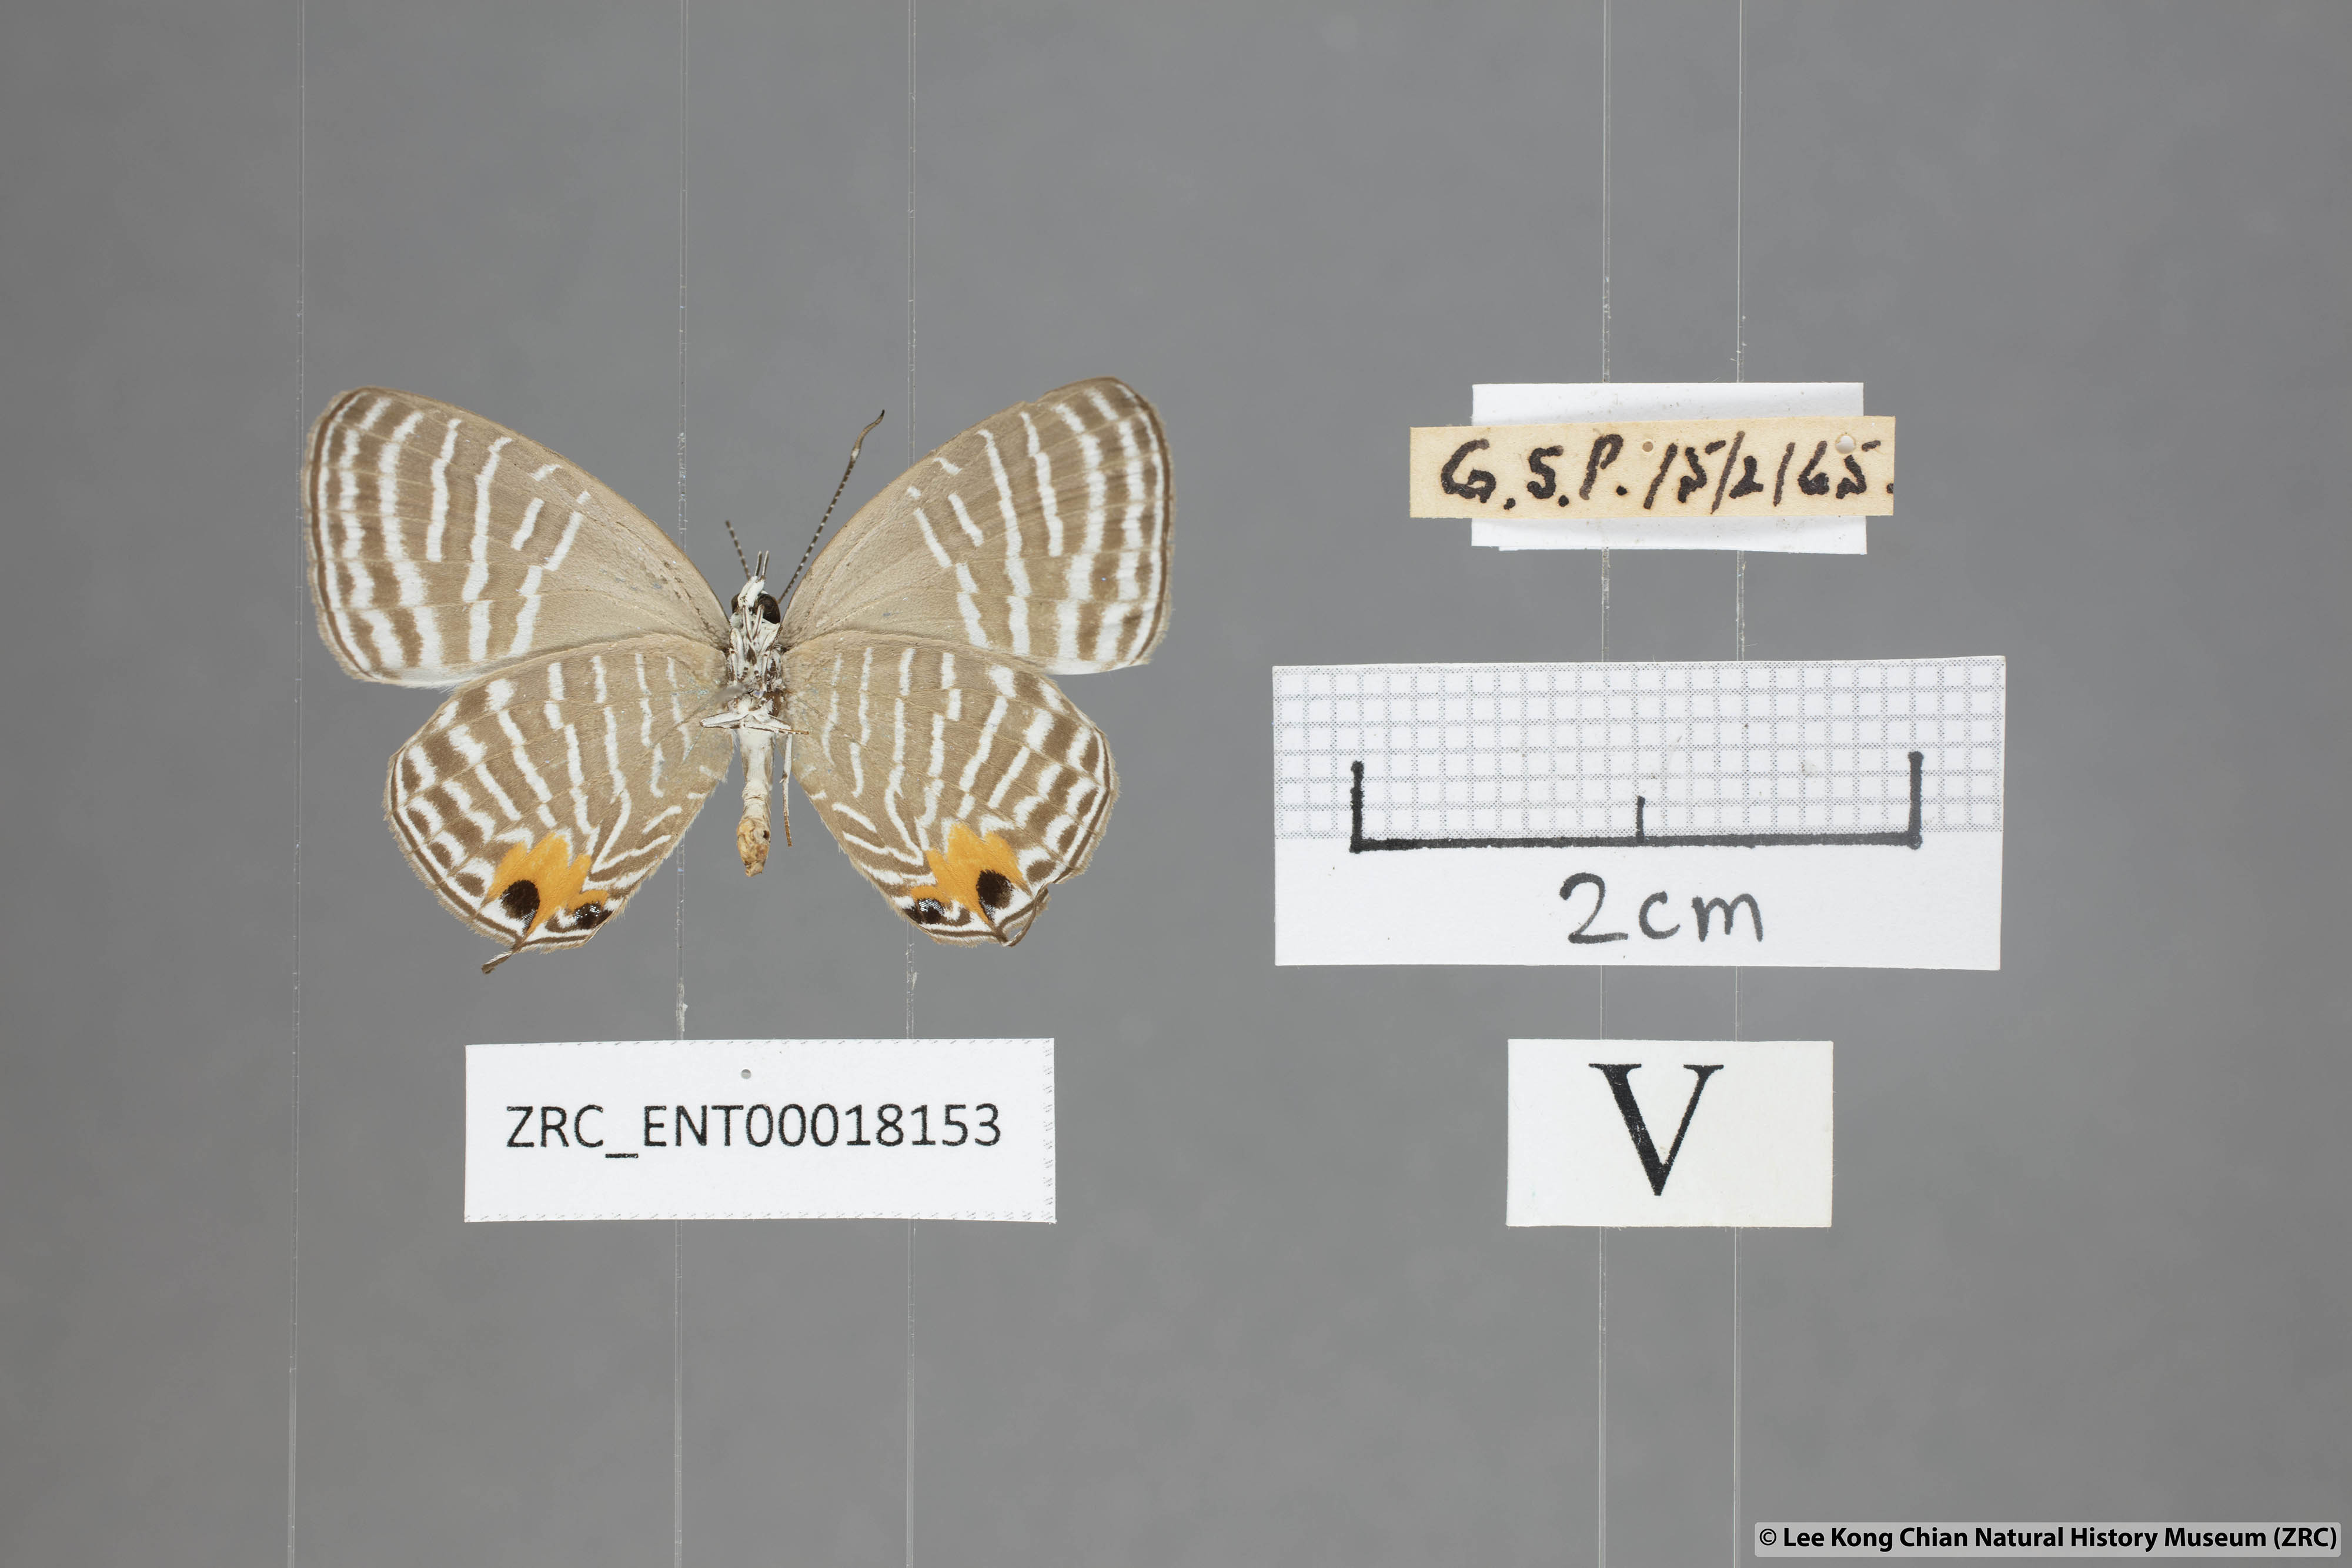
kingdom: Animalia
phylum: Arthropoda
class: Insecta
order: Lepidoptera
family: Lycaenidae
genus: Jamides
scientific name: Jamides parasaturata
